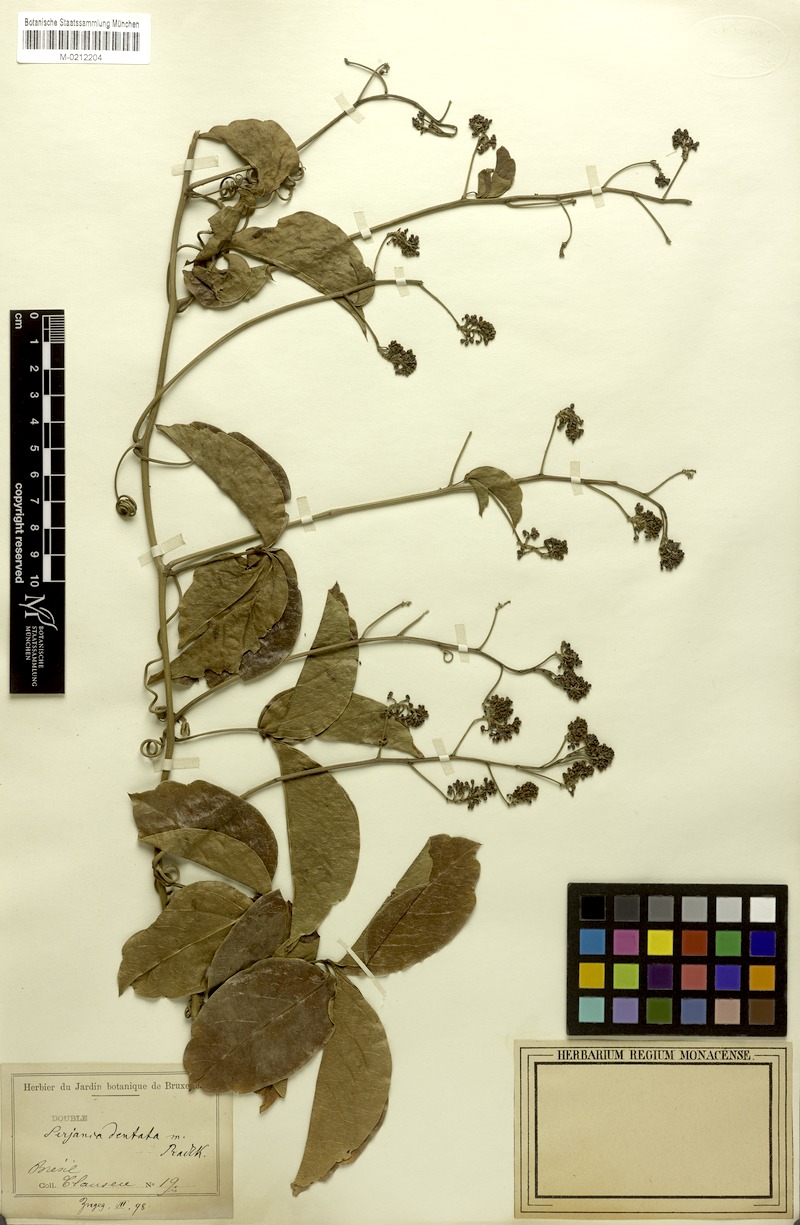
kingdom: Plantae
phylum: Tracheophyta
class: Magnoliopsida
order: Sapindales
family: Sapindaceae
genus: Serjania
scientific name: Serjania dentata
